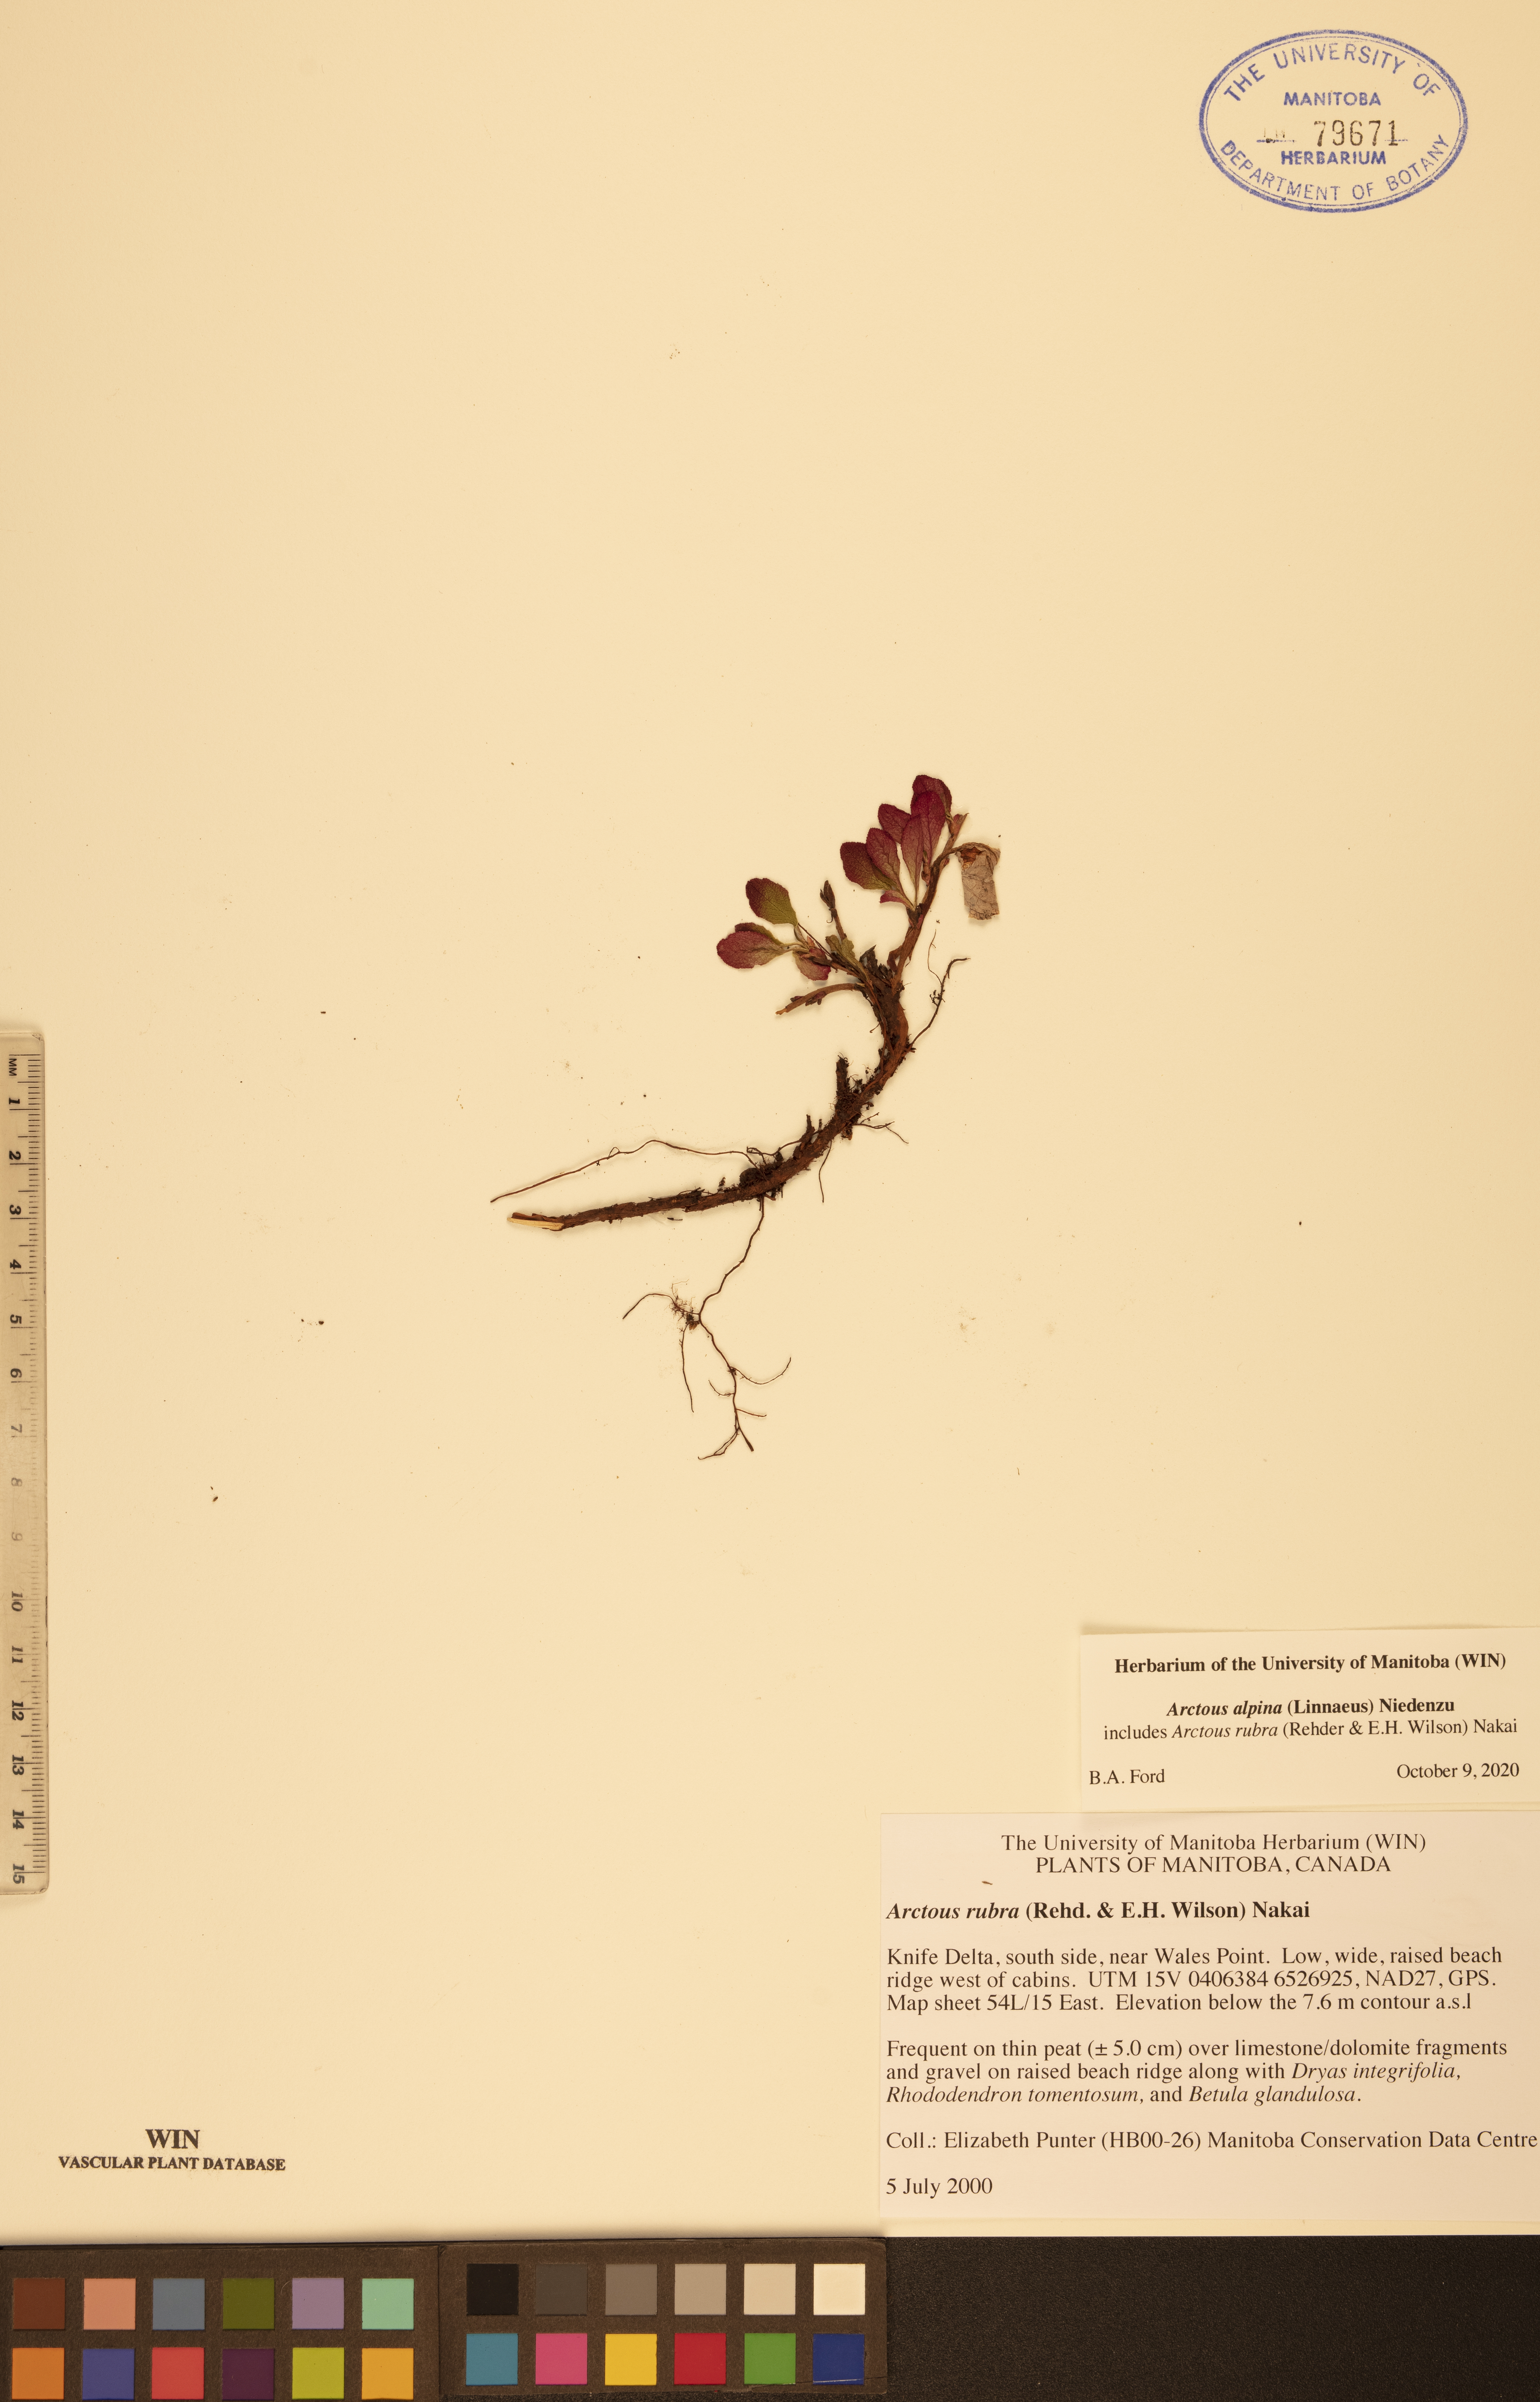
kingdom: Plantae
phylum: Tracheophyta
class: Magnoliopsida
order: Ericales
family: Ericaceae
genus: Arctostaphylos
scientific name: Arctostaphylos alpinus
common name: Alpine bearberry
